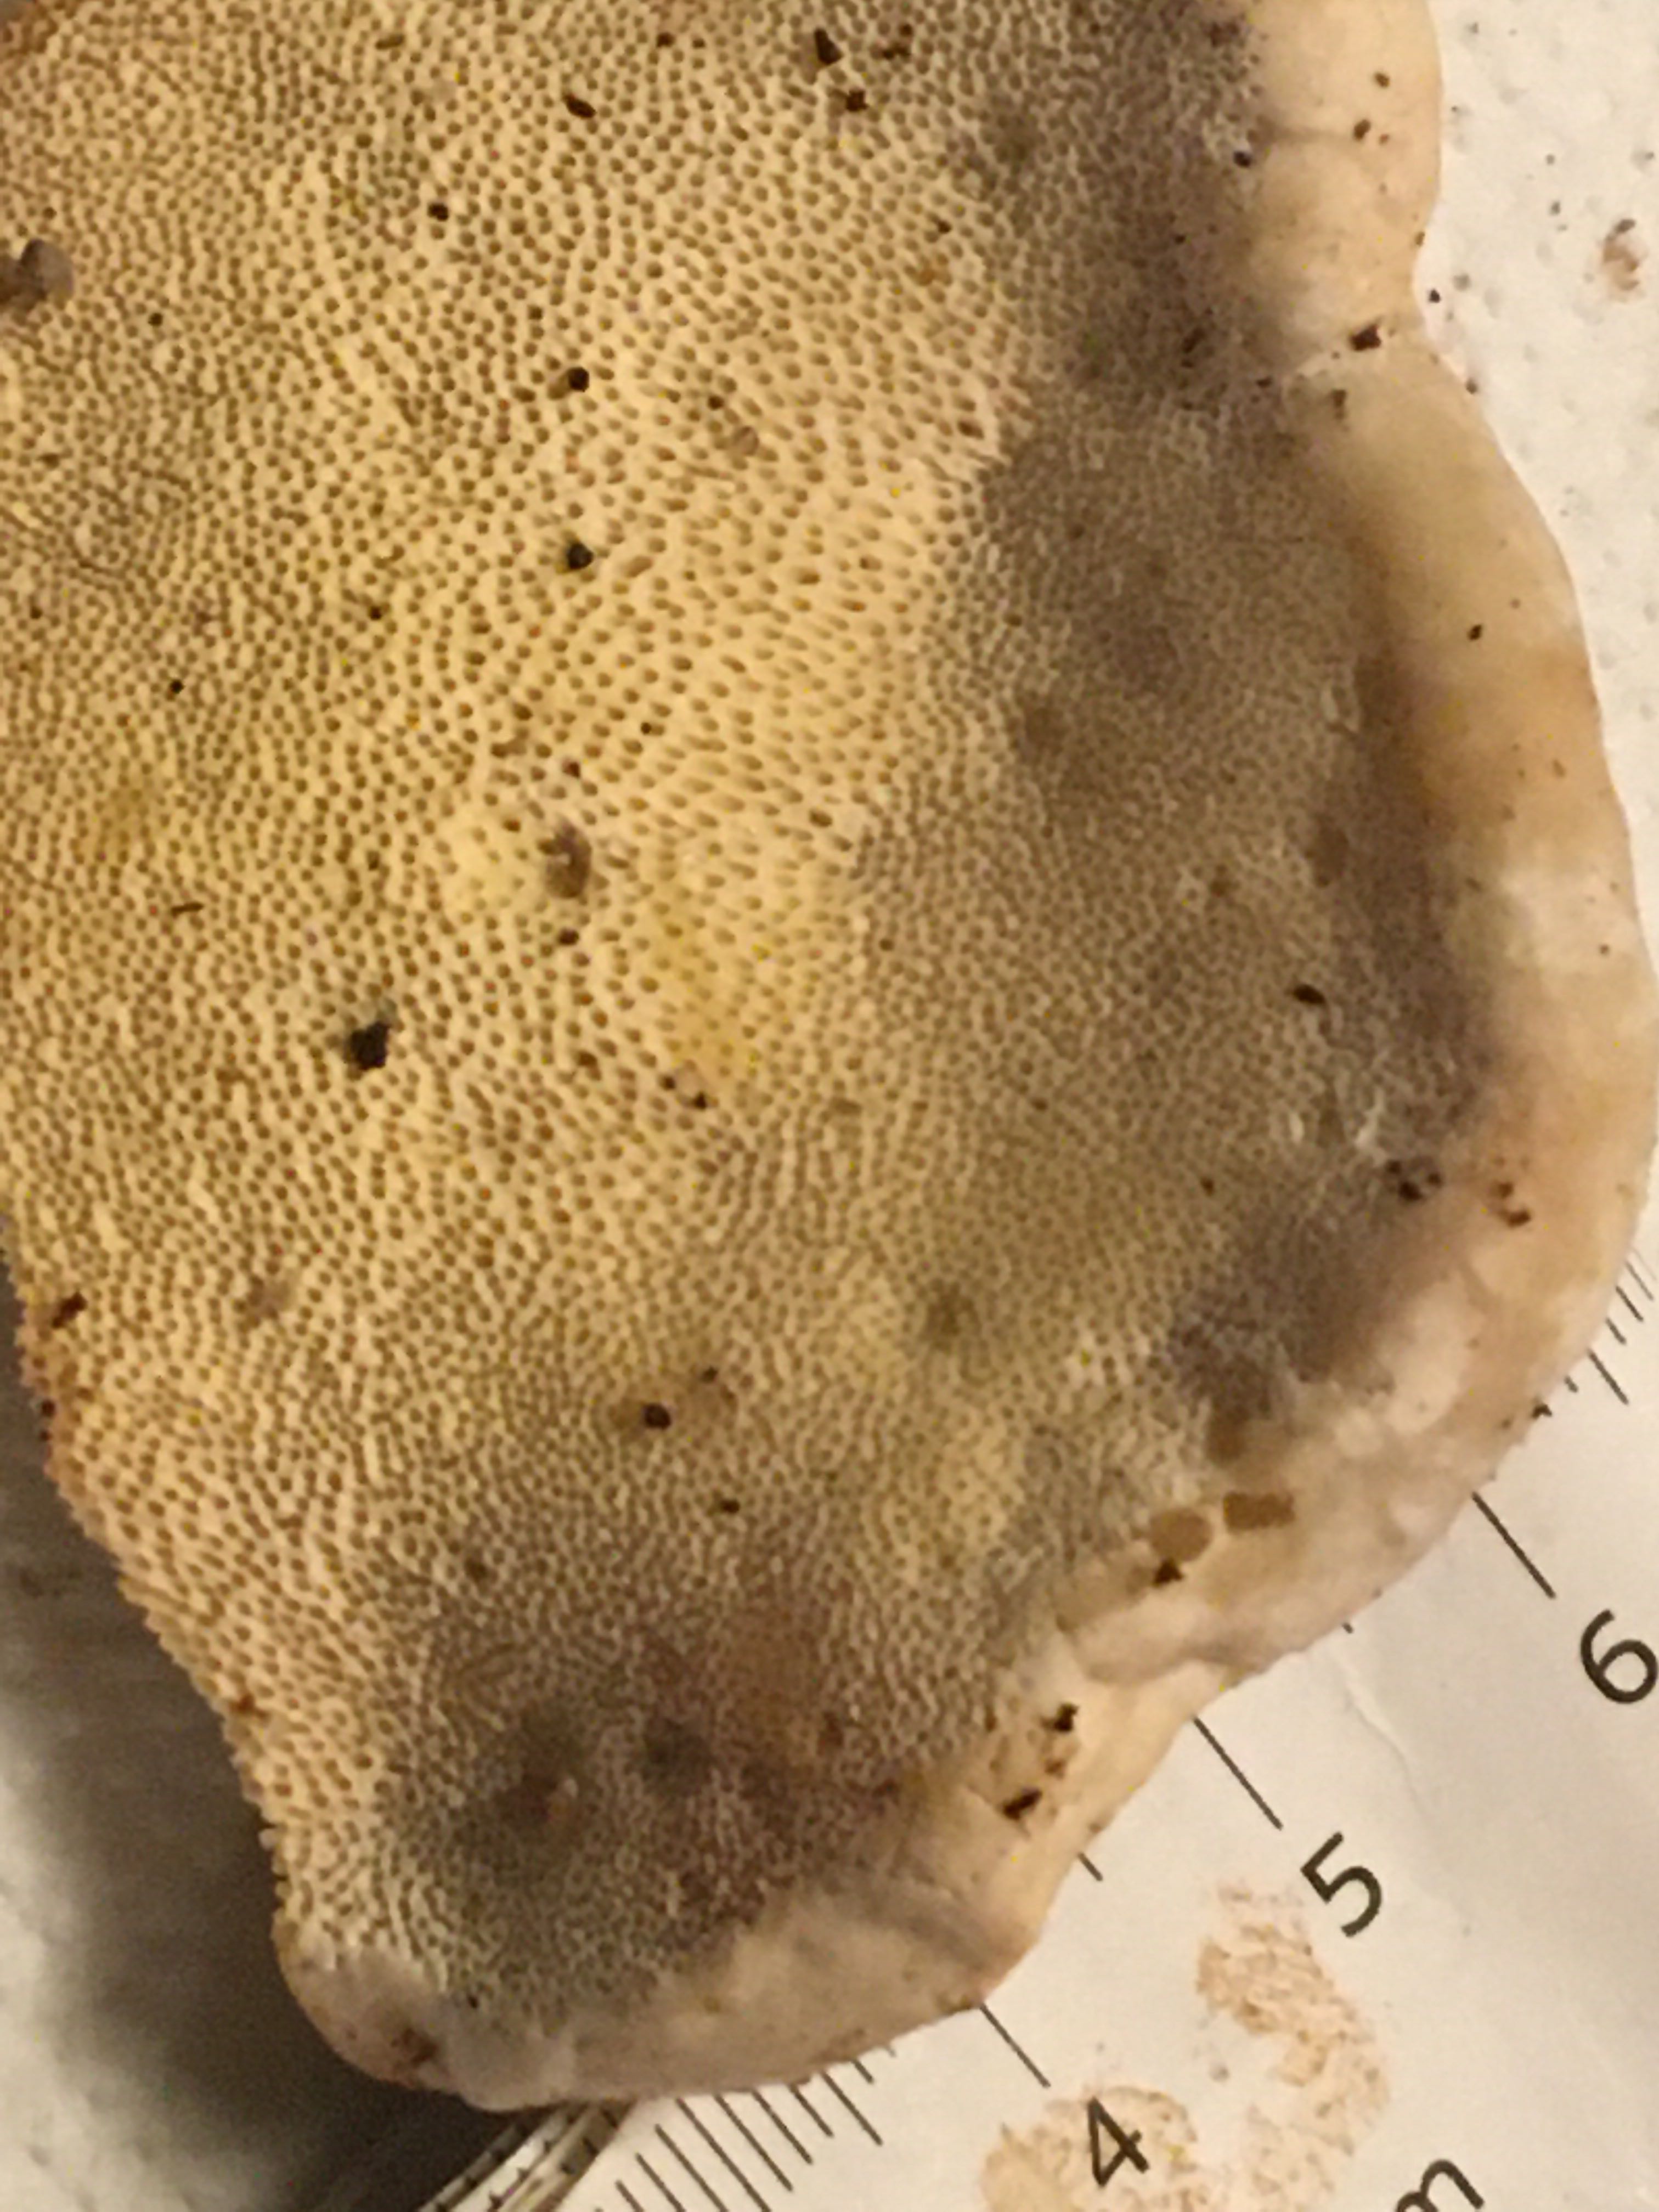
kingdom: Fungi
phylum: Basidiomycota
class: Agaricomycetes
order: Polyporales
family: Fomitopsidaceae
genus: Fomitopsis
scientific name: Fomitopsis pinicola
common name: randbæltet hovporesvamp
